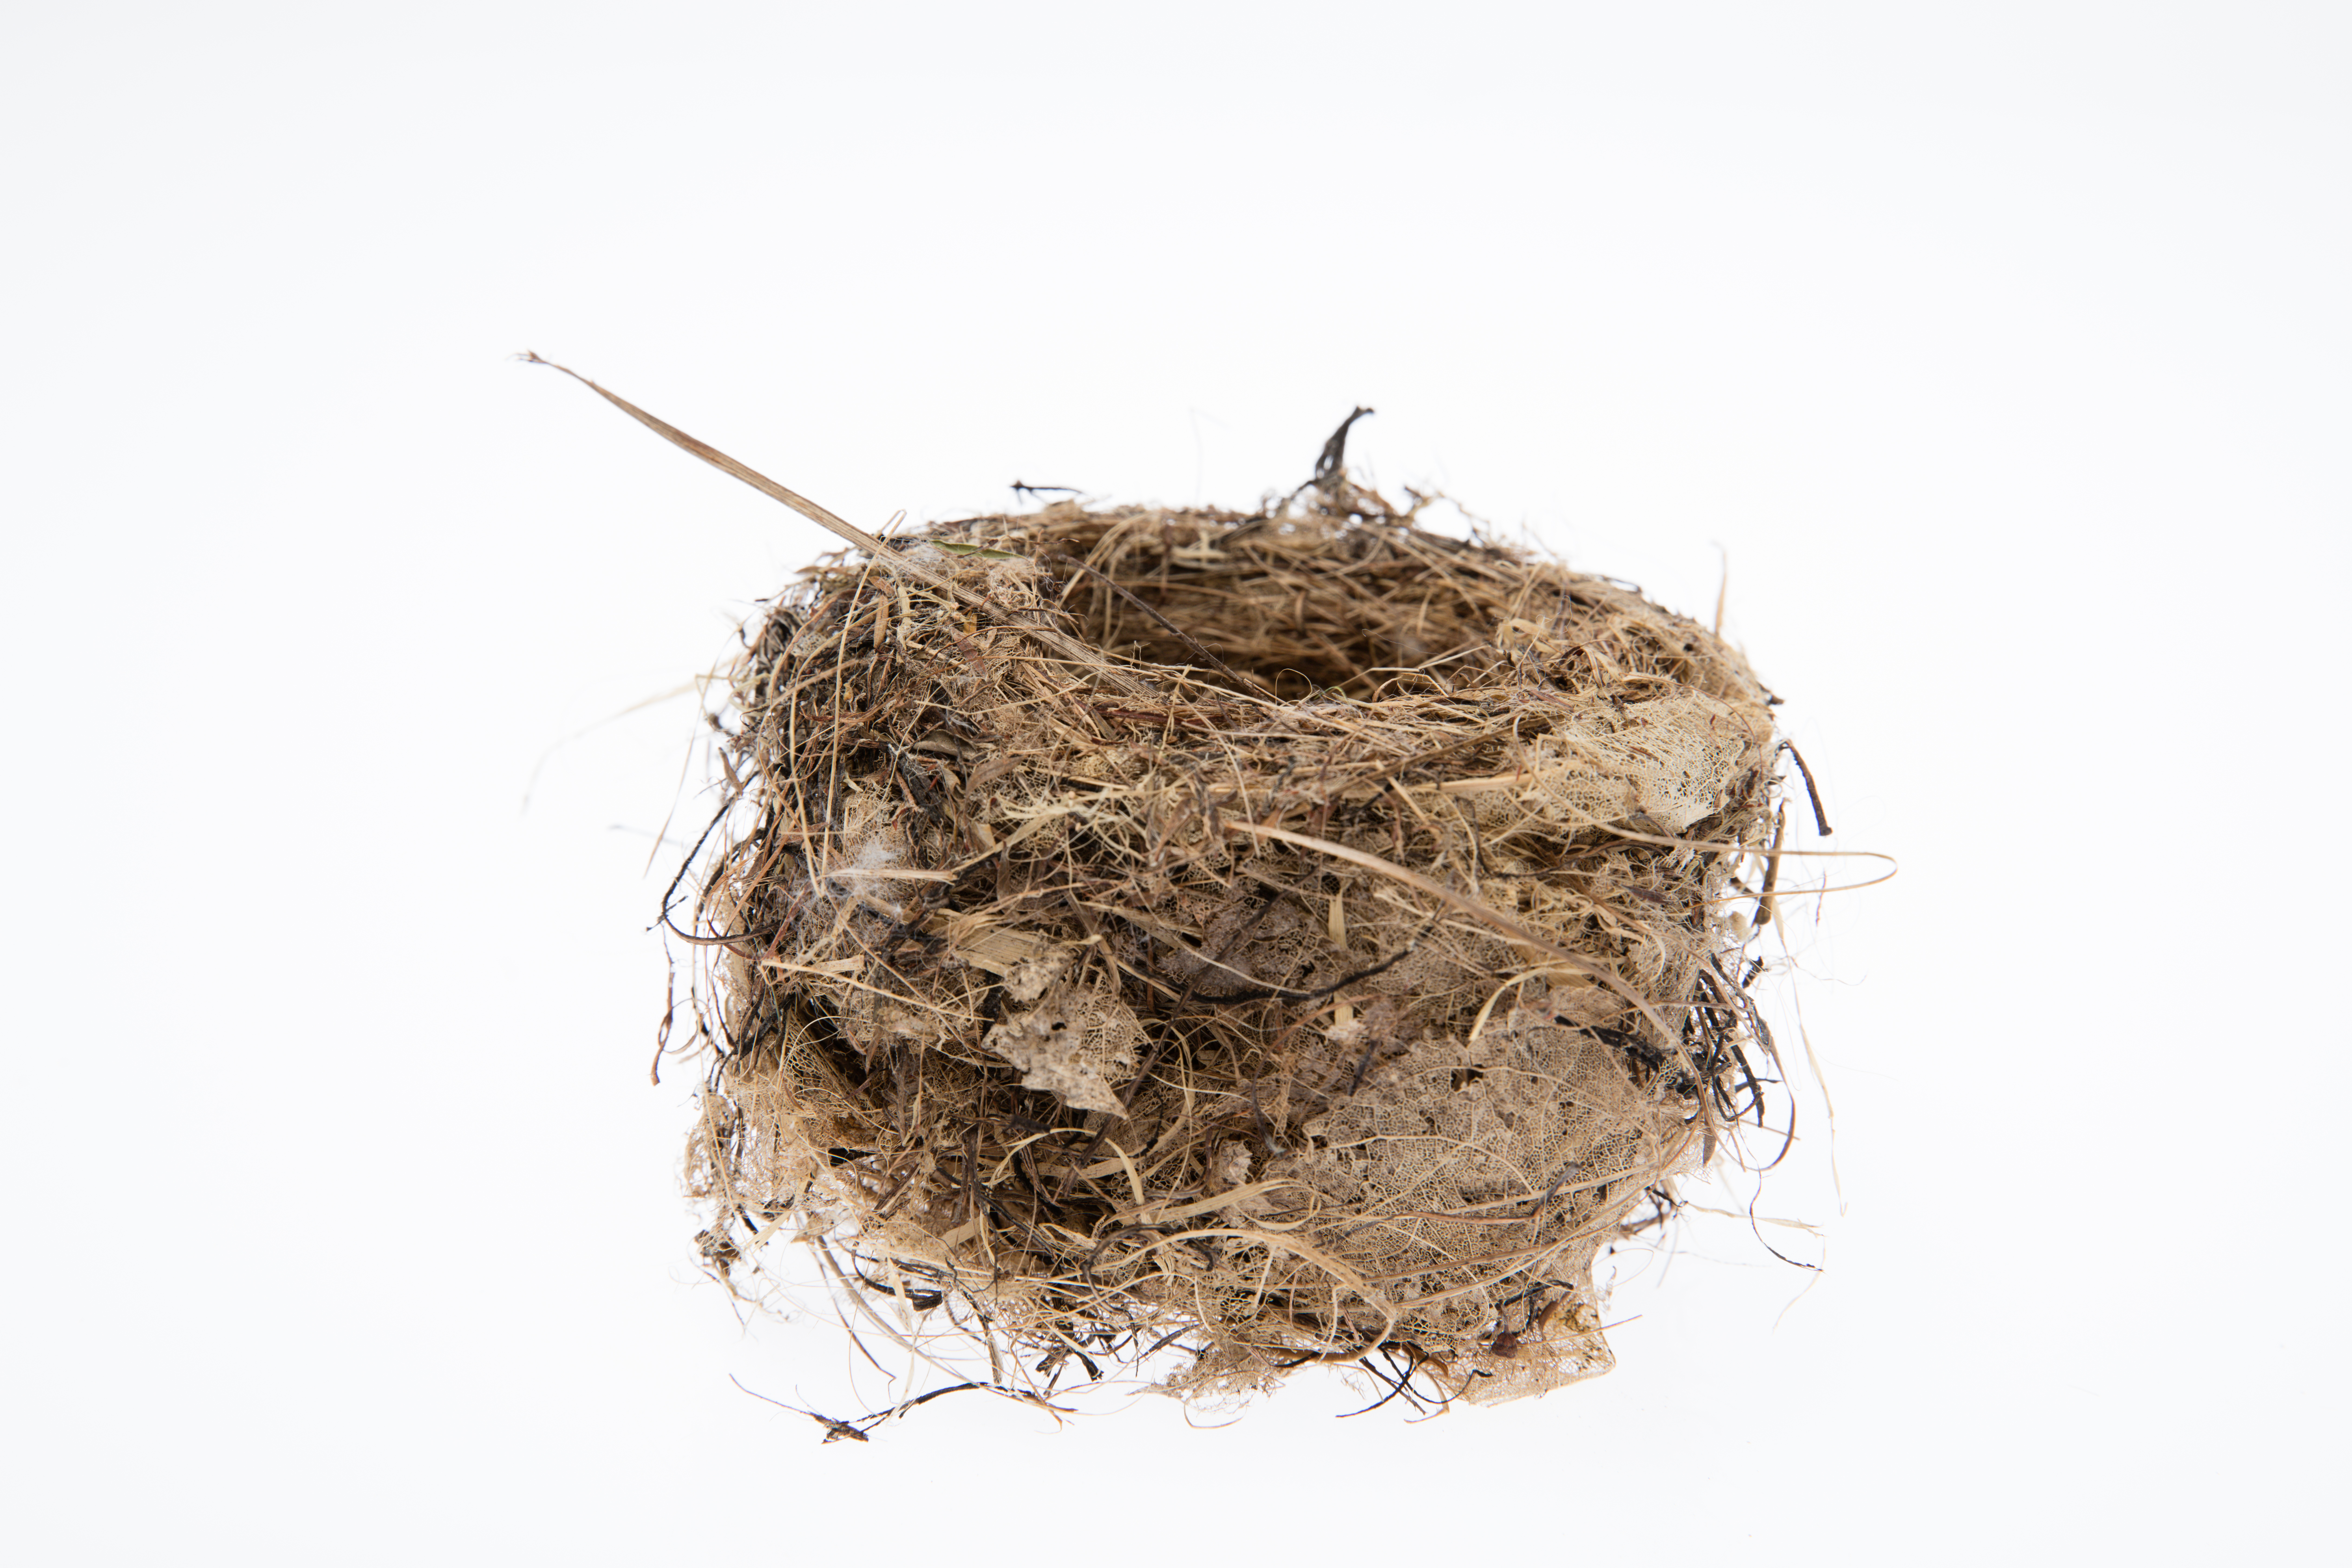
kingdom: Animalia
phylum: Chordata
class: Aves
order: Passeriformes
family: Acanthizidae
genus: Mohoua
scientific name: Mohoua albicilla
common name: Whitehead
